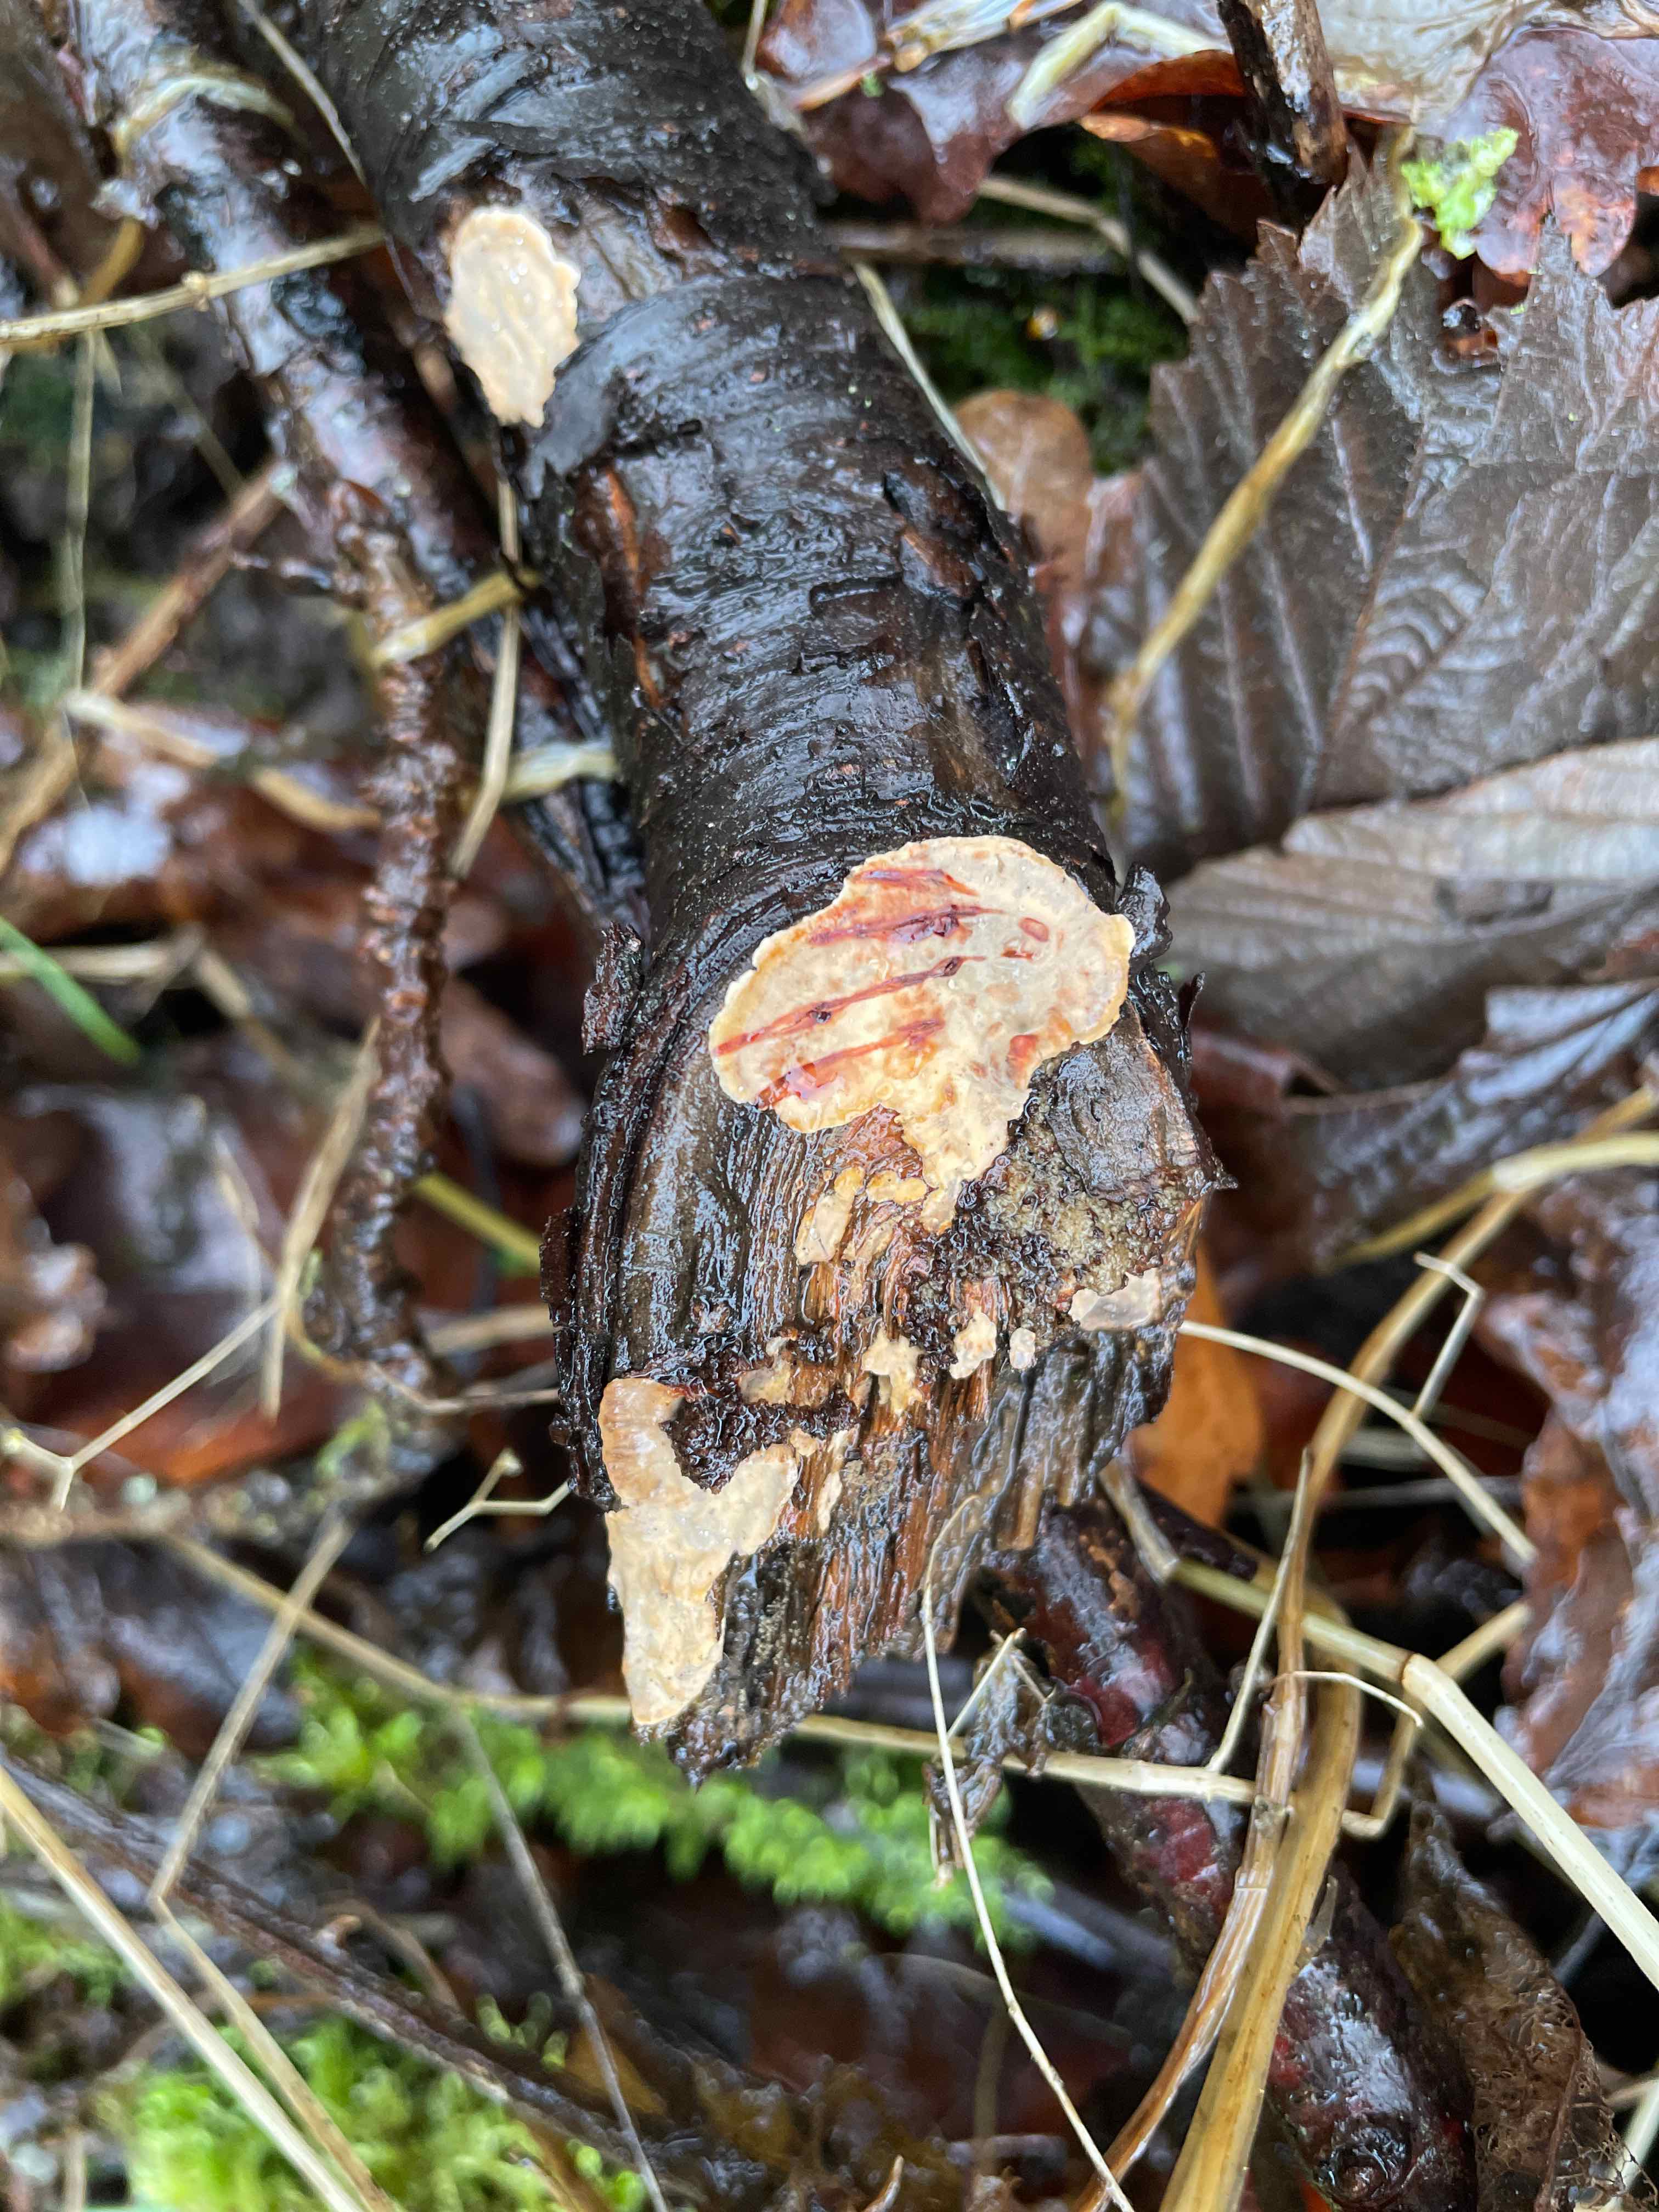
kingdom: Fungi
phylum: Basidiomycota
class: Agaricomycetes
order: Russulales
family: Stereaceae
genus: Stereum
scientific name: Stereum rugosum
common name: rynket lædersvamp
